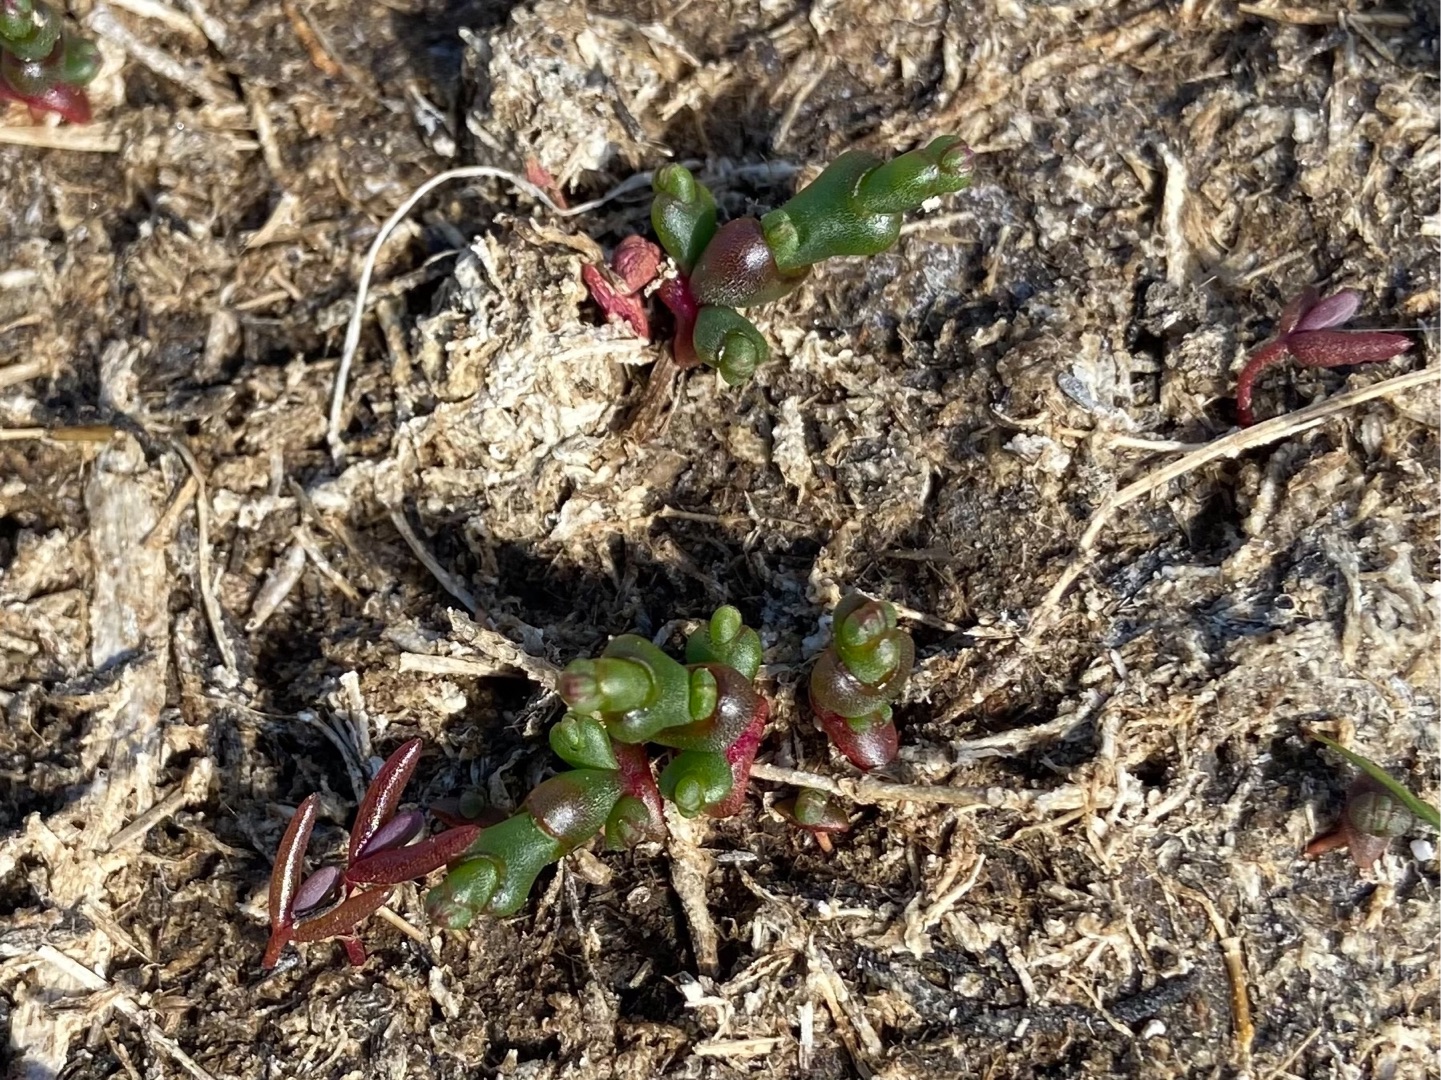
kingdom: Plantae
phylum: Tracheophyta
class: Magnoliopsida
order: Caryophyllales
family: Amaranthaceae
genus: Salicornia
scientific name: Salicornia europaea
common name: Almindelig salturt
